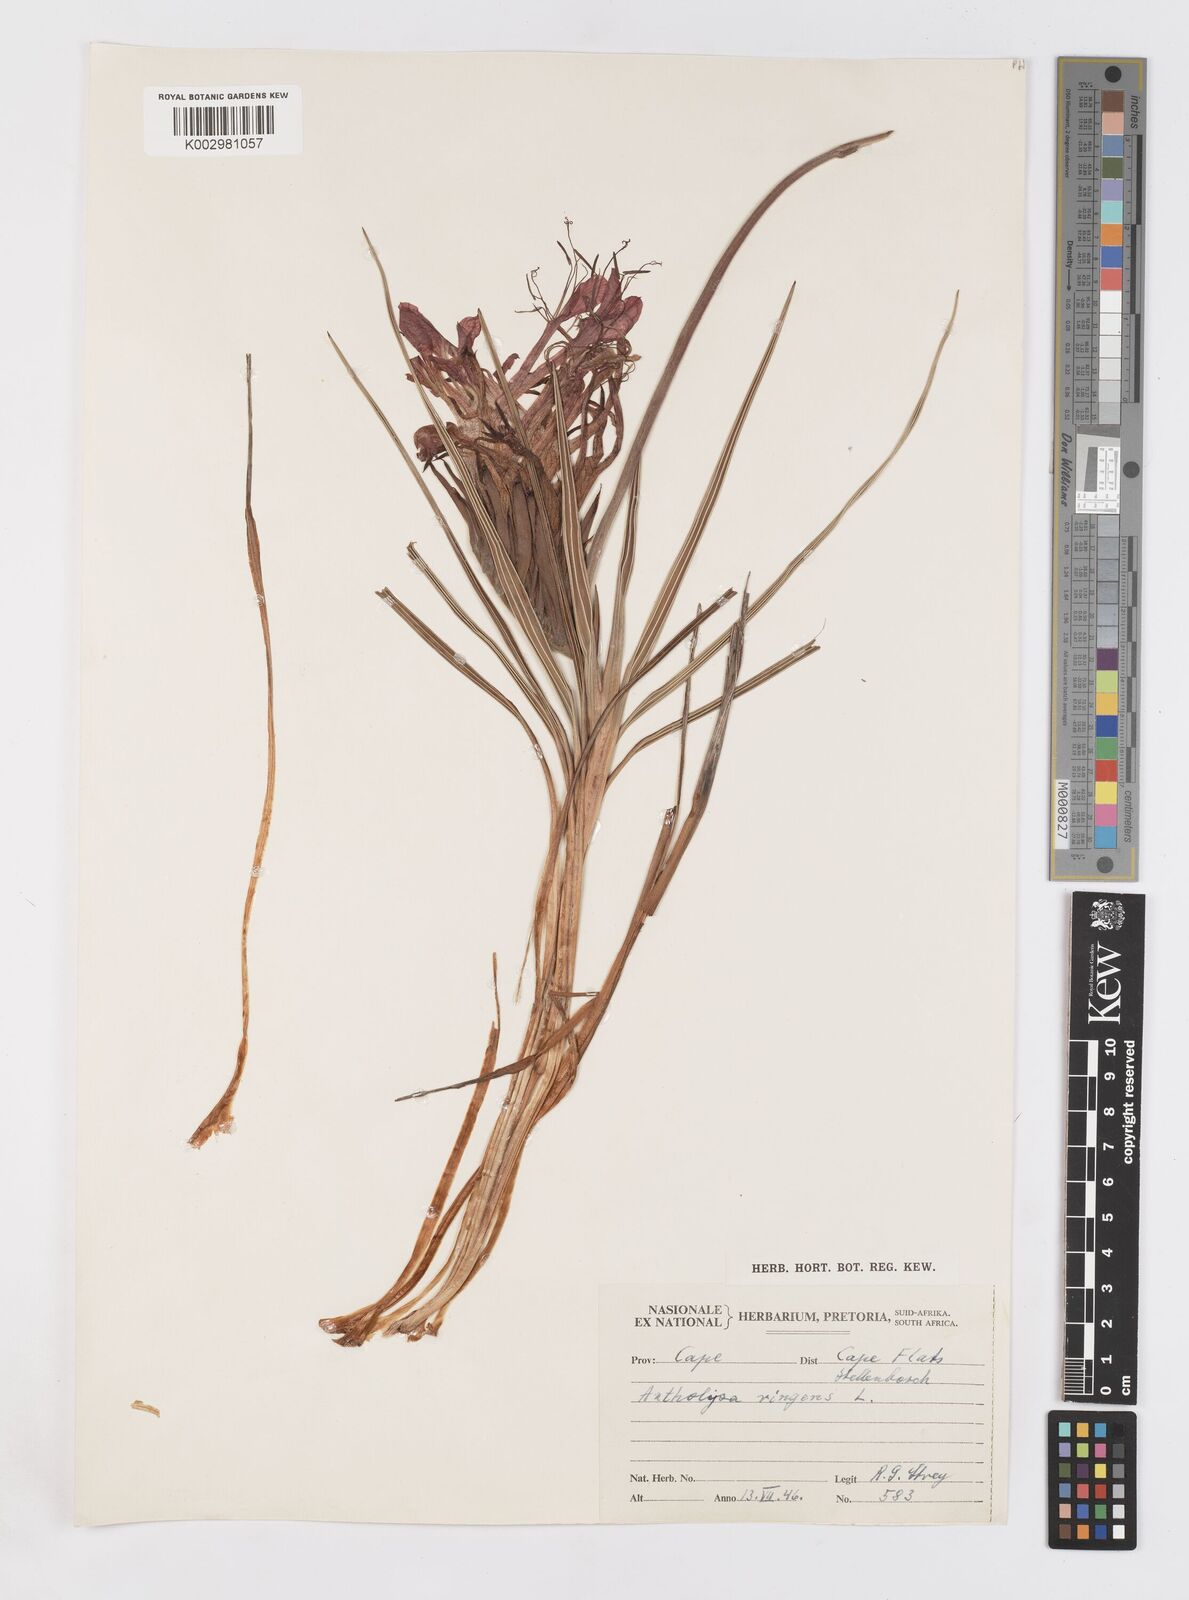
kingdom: Plantae
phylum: Tracheophyta
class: Liliopsida
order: Asparagales
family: Iridaceae
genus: Babiana
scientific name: Babiana ringens
